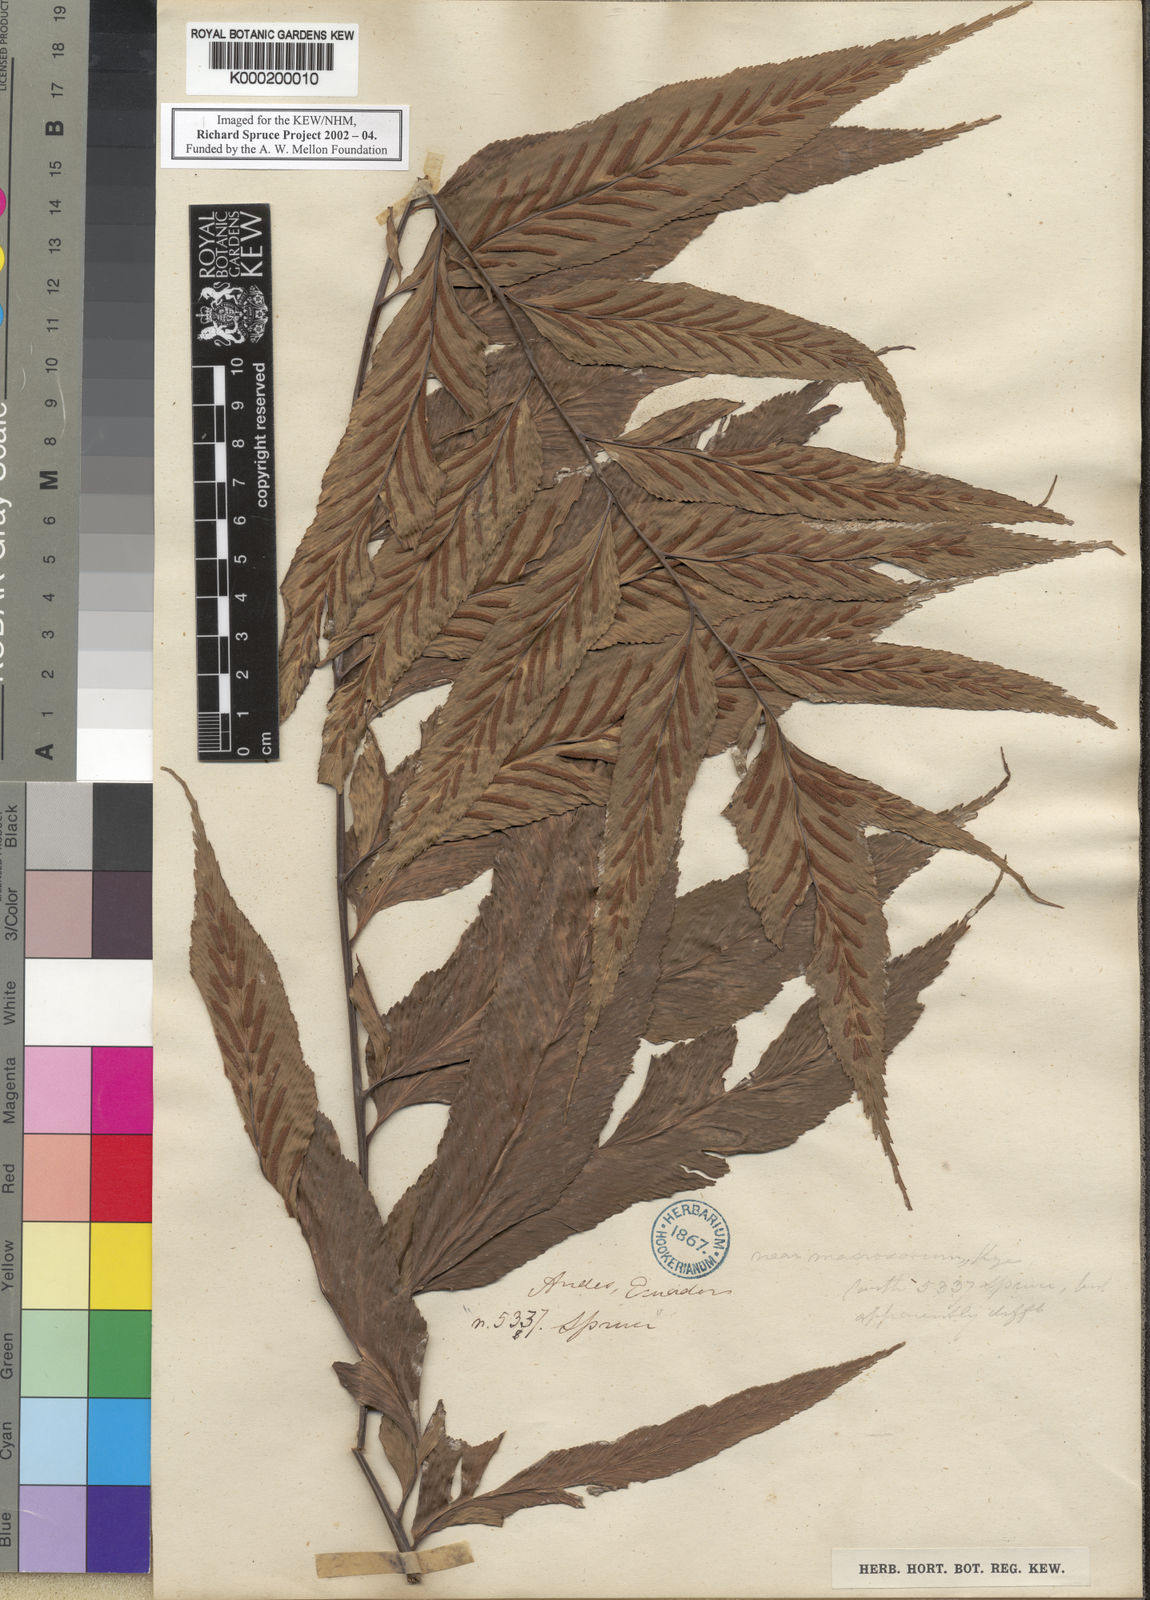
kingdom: Plantae
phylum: Tracheophyta
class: Polypodiopsida
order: Polypodiales
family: Aspleniaceae
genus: Asplenium
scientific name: Asplenium
